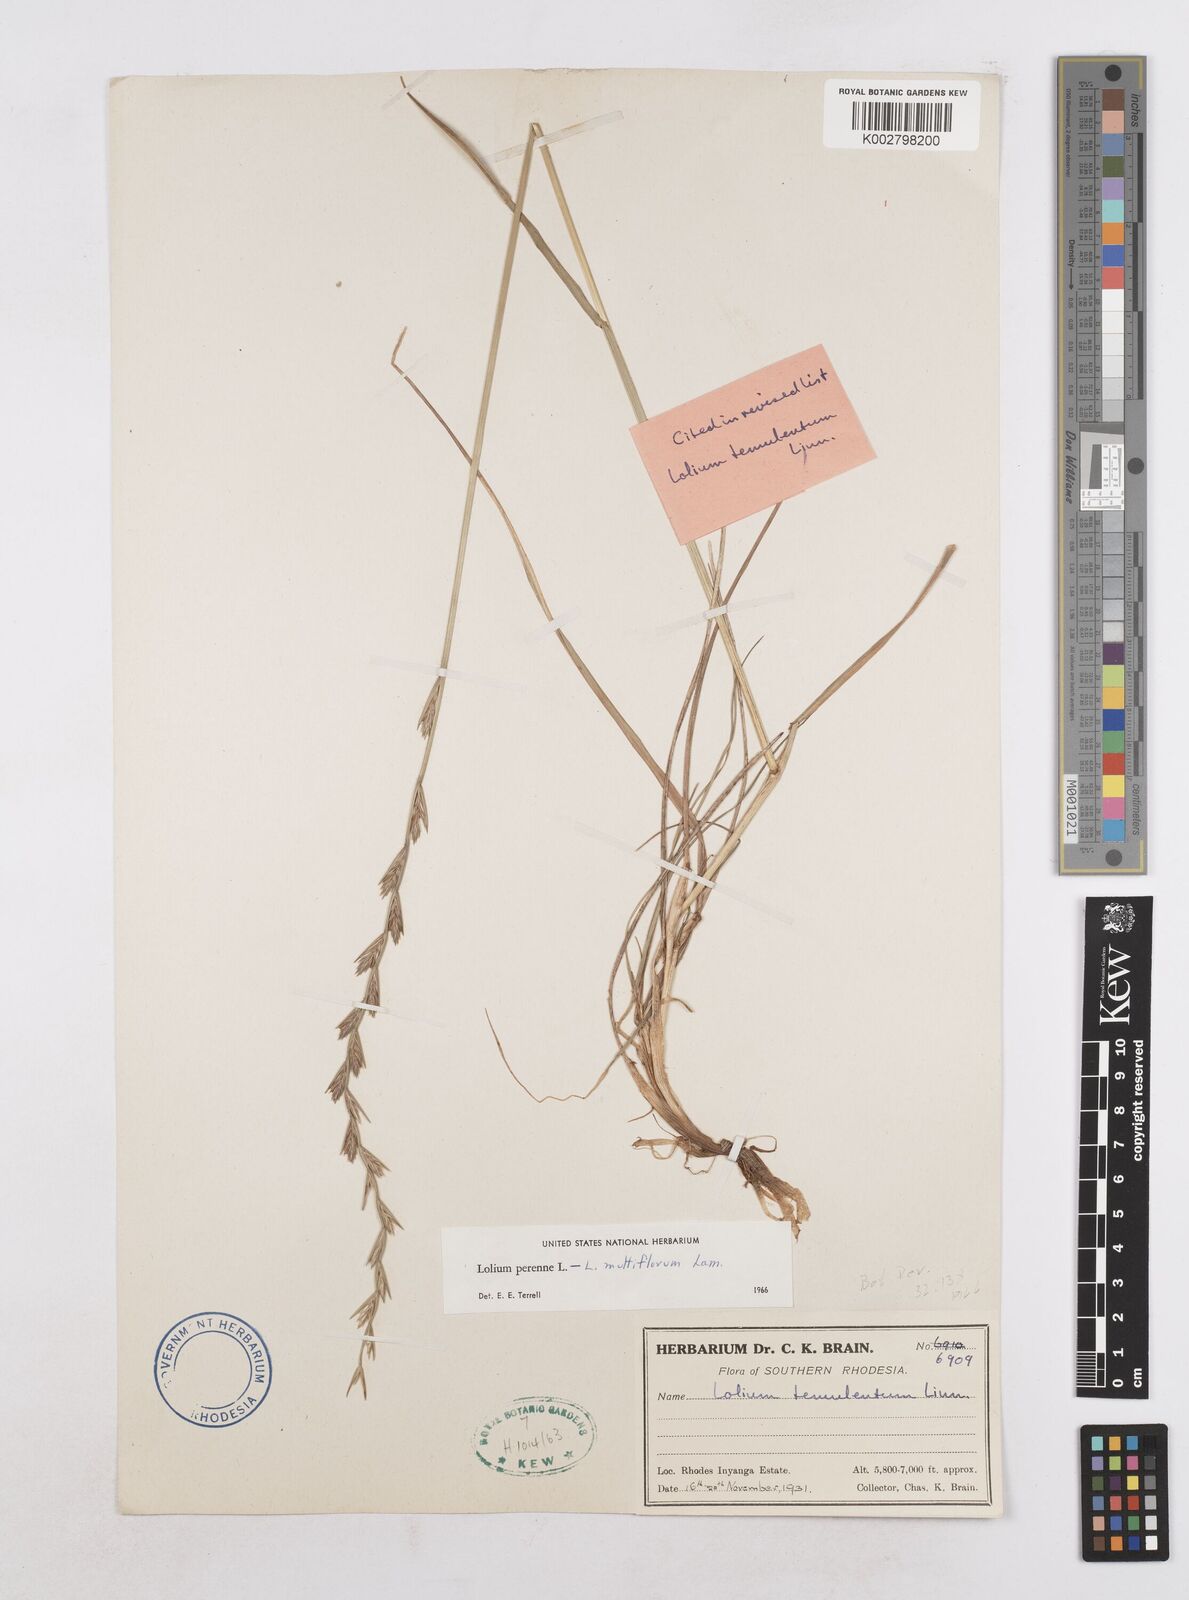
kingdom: Plantae
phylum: Tracheophyta
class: Liliopsida
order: Poales
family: Poaceae
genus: Lolium
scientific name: Lolium multiflorum
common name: Annual ryegrass
